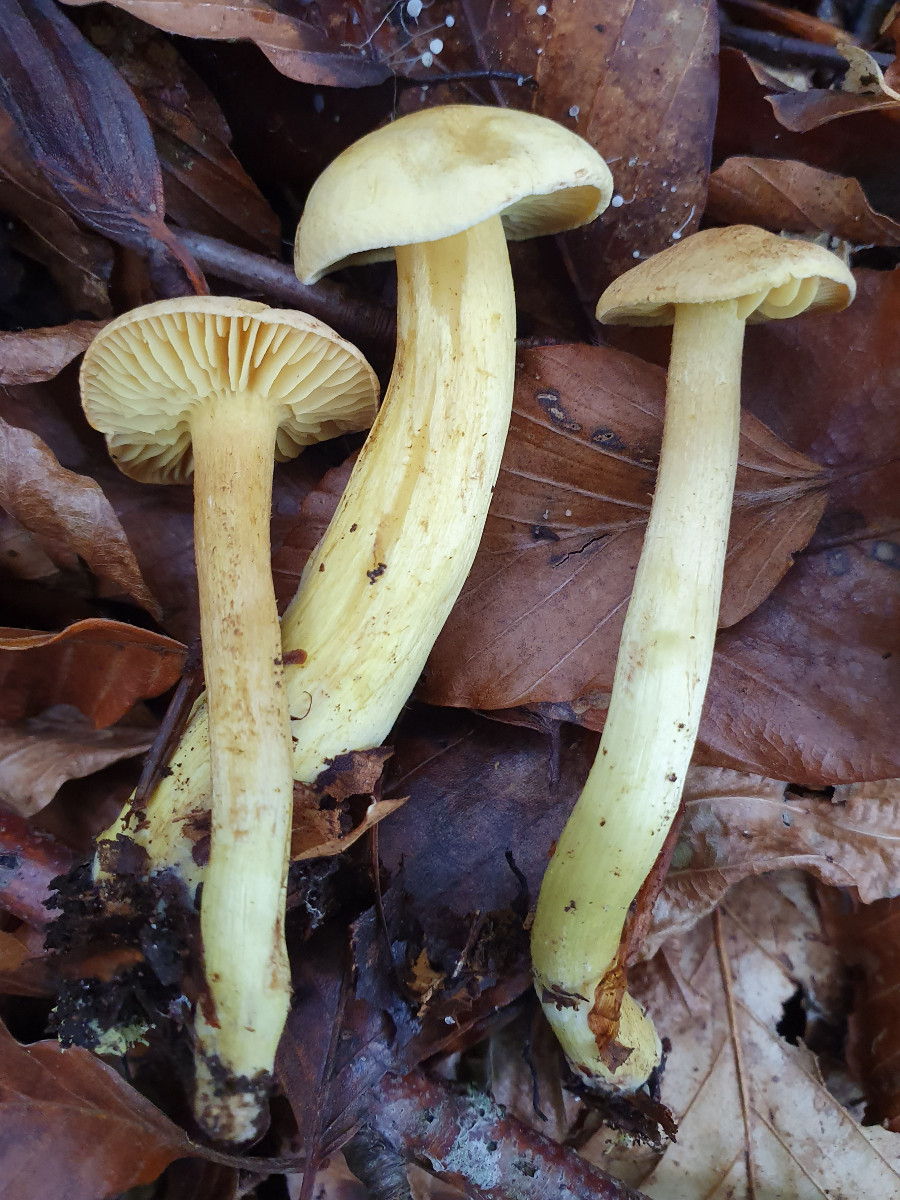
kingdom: Fungi
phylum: Basidiomycota
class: Agaricomycetes
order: Agaricales
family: Tricholomataceae
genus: Tricholoma
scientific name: Tricholoma sulphureum
